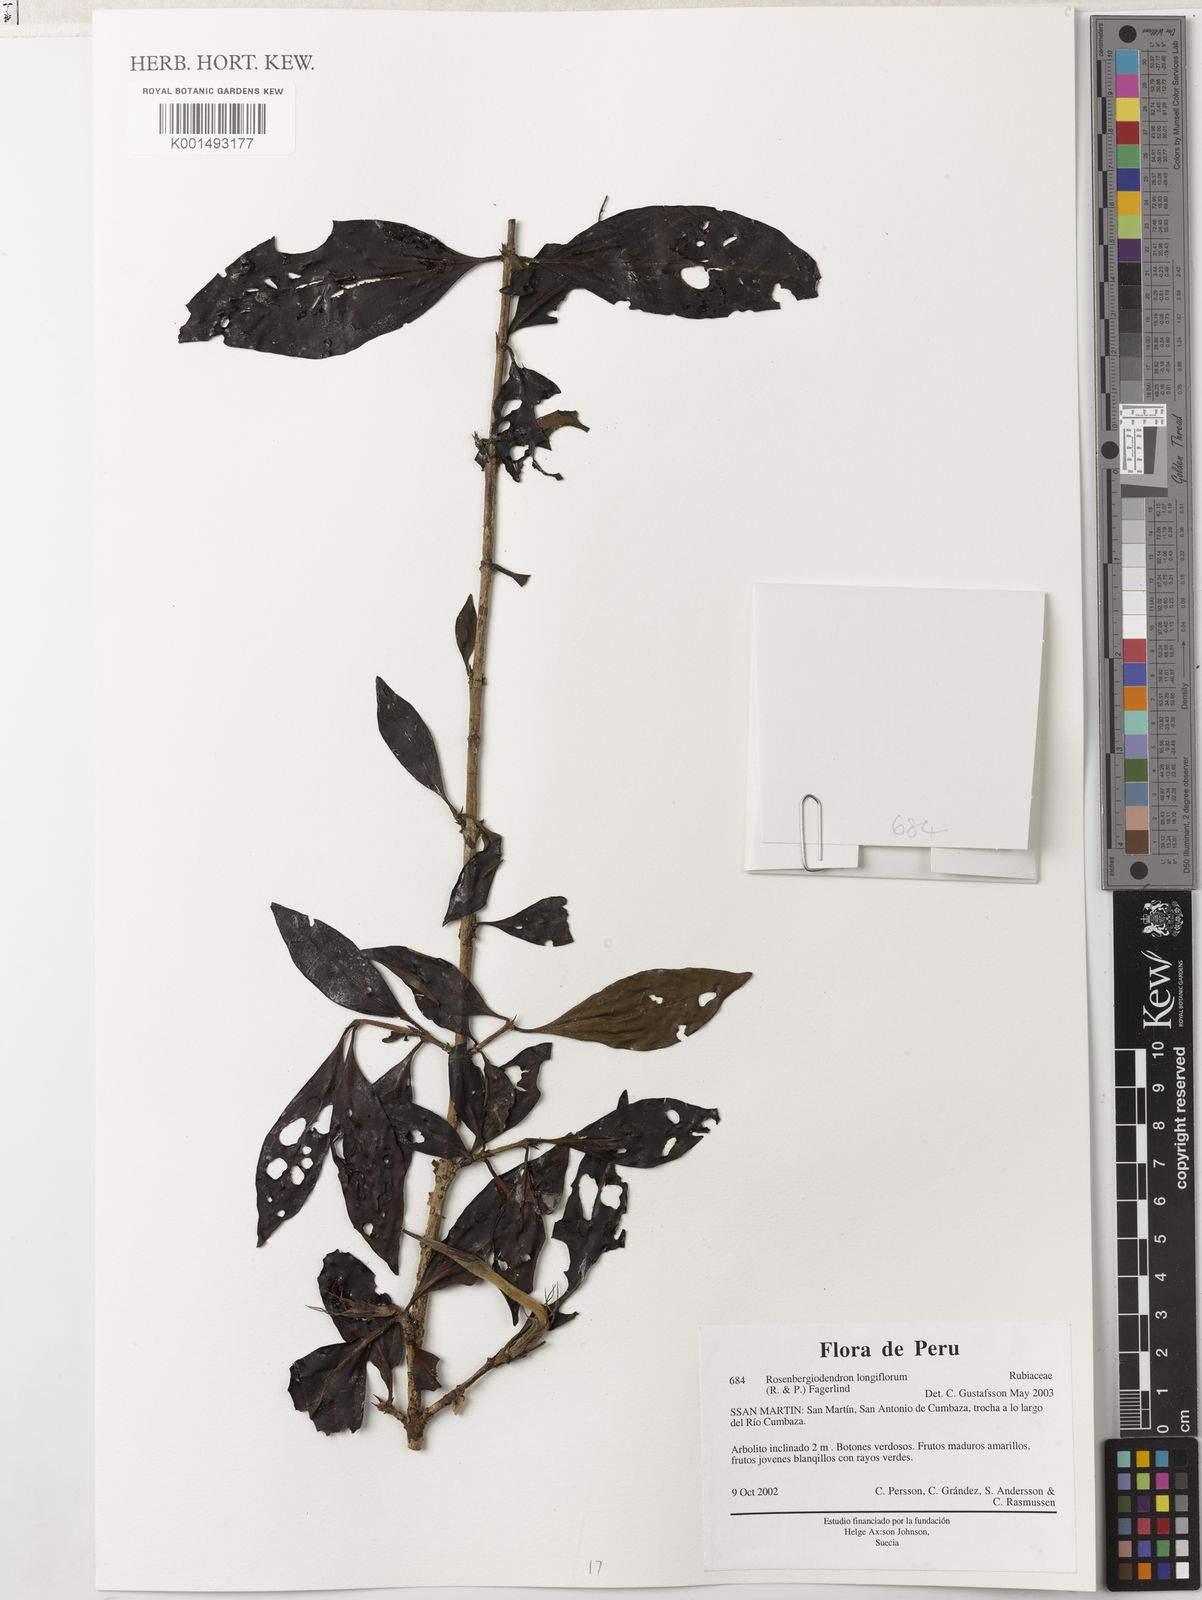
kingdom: Plantae
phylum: Tracheophyta
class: Magnoliopsida
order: Gentianales
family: Rubiaceae
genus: Rosenbergiodendron
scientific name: Rosenbergiodendron longiflorum
